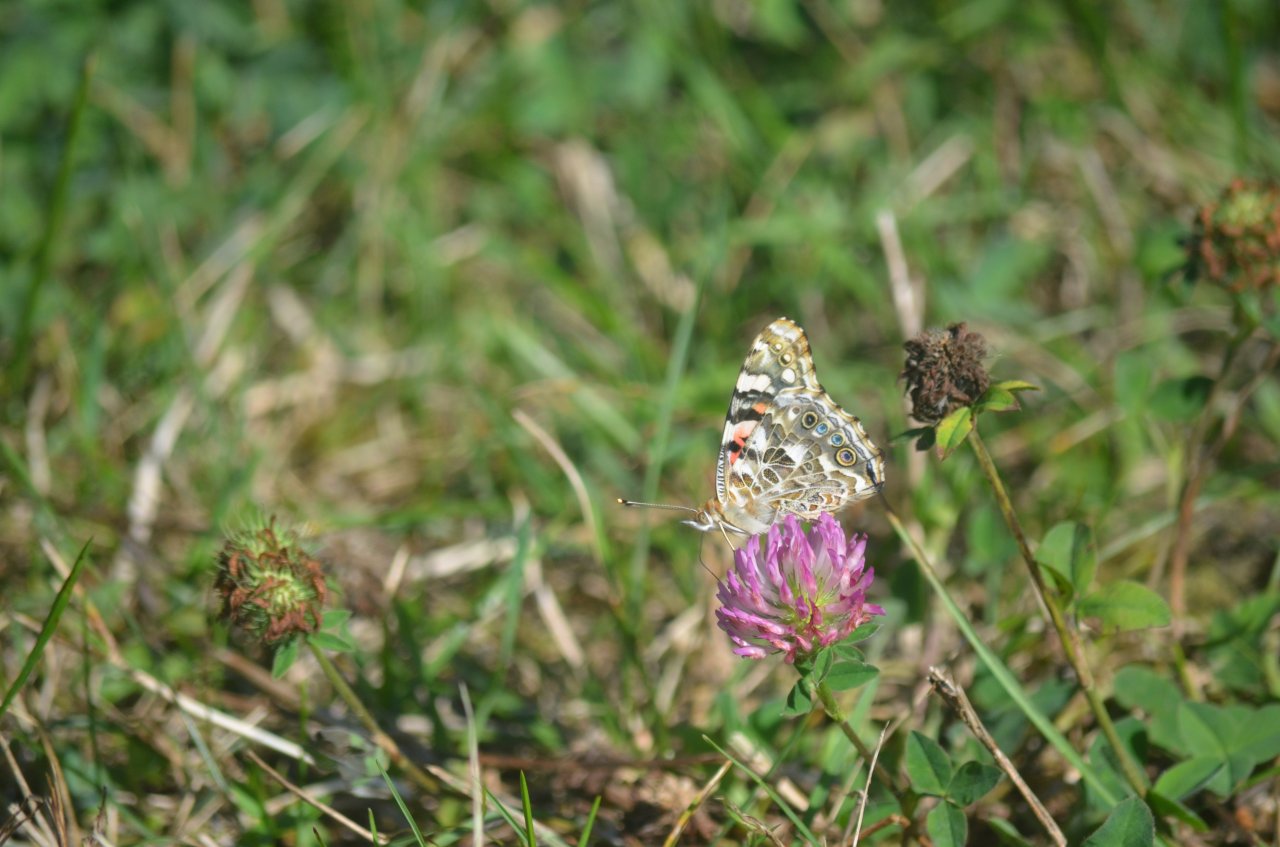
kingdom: Animalia
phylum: Arthropoda
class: Insecta
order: Lepidoptera
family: Nymphalidae
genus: Vanessa
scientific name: Vanessa cardui
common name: Painted Lady
